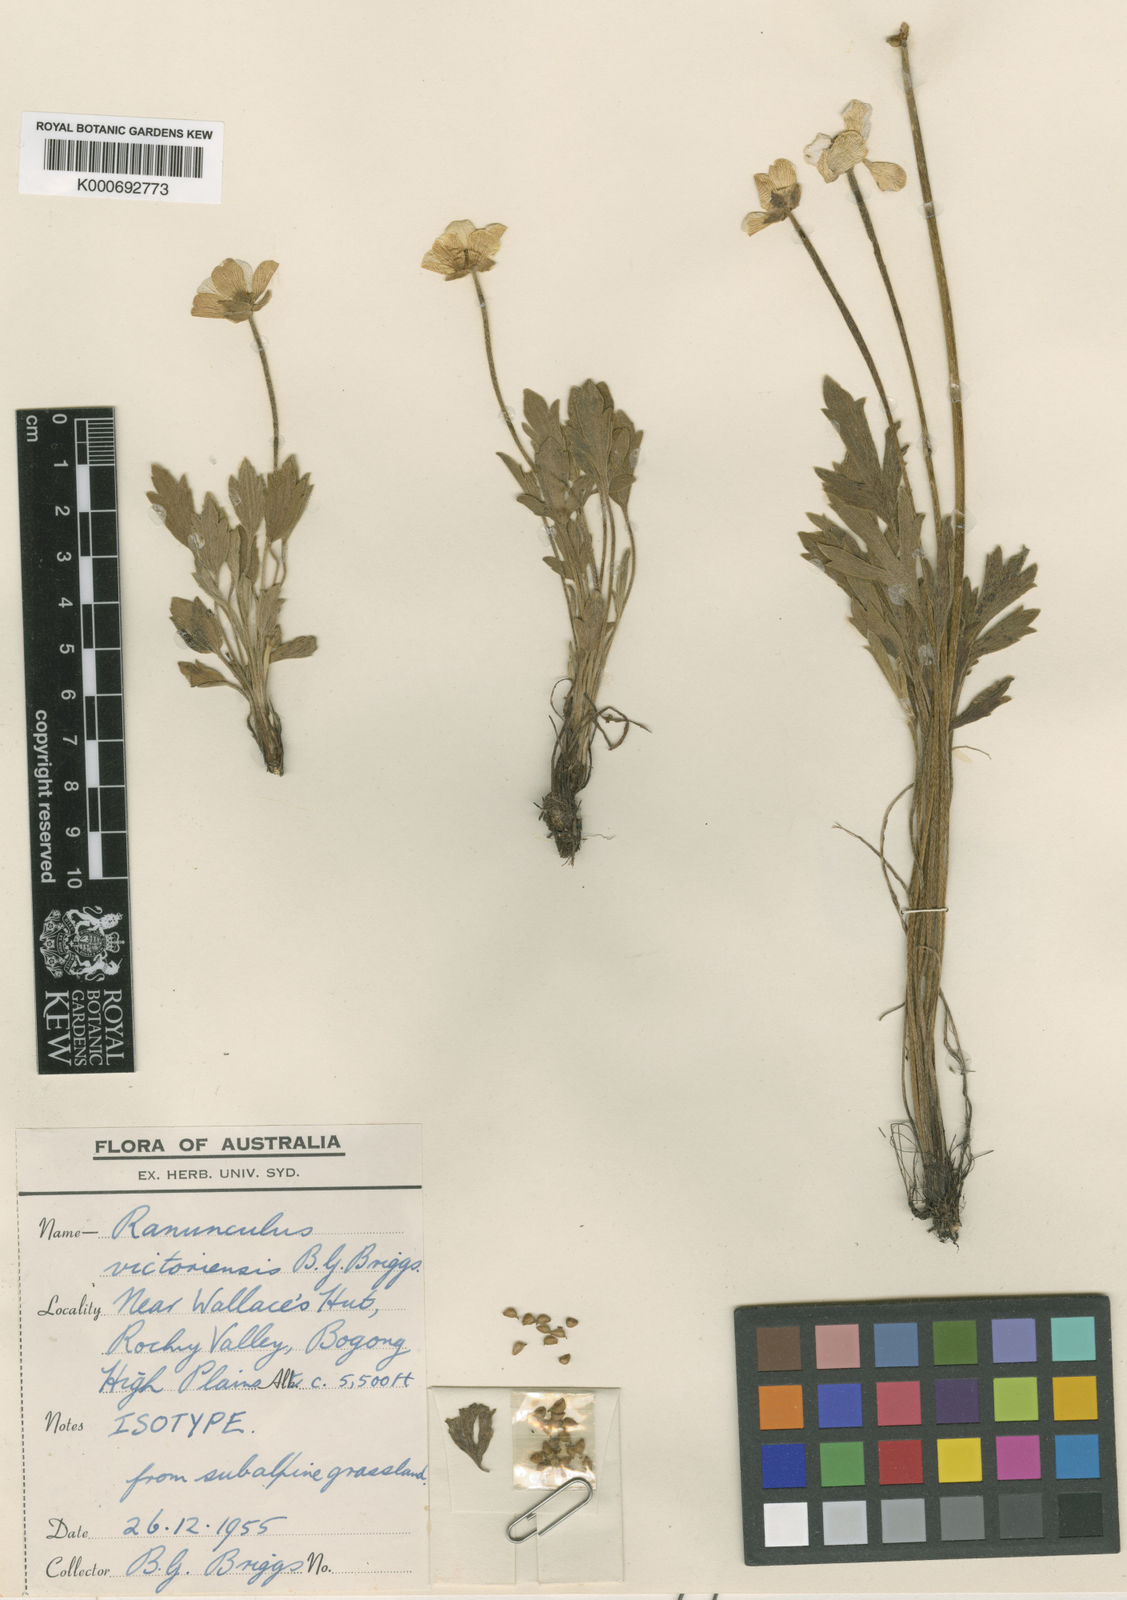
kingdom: Plantae
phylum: Tracheophyta
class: Magnoliopsida
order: Ranunculales
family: Ranunculaceae
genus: Ranunculus
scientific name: Ranunculus victoriensis
